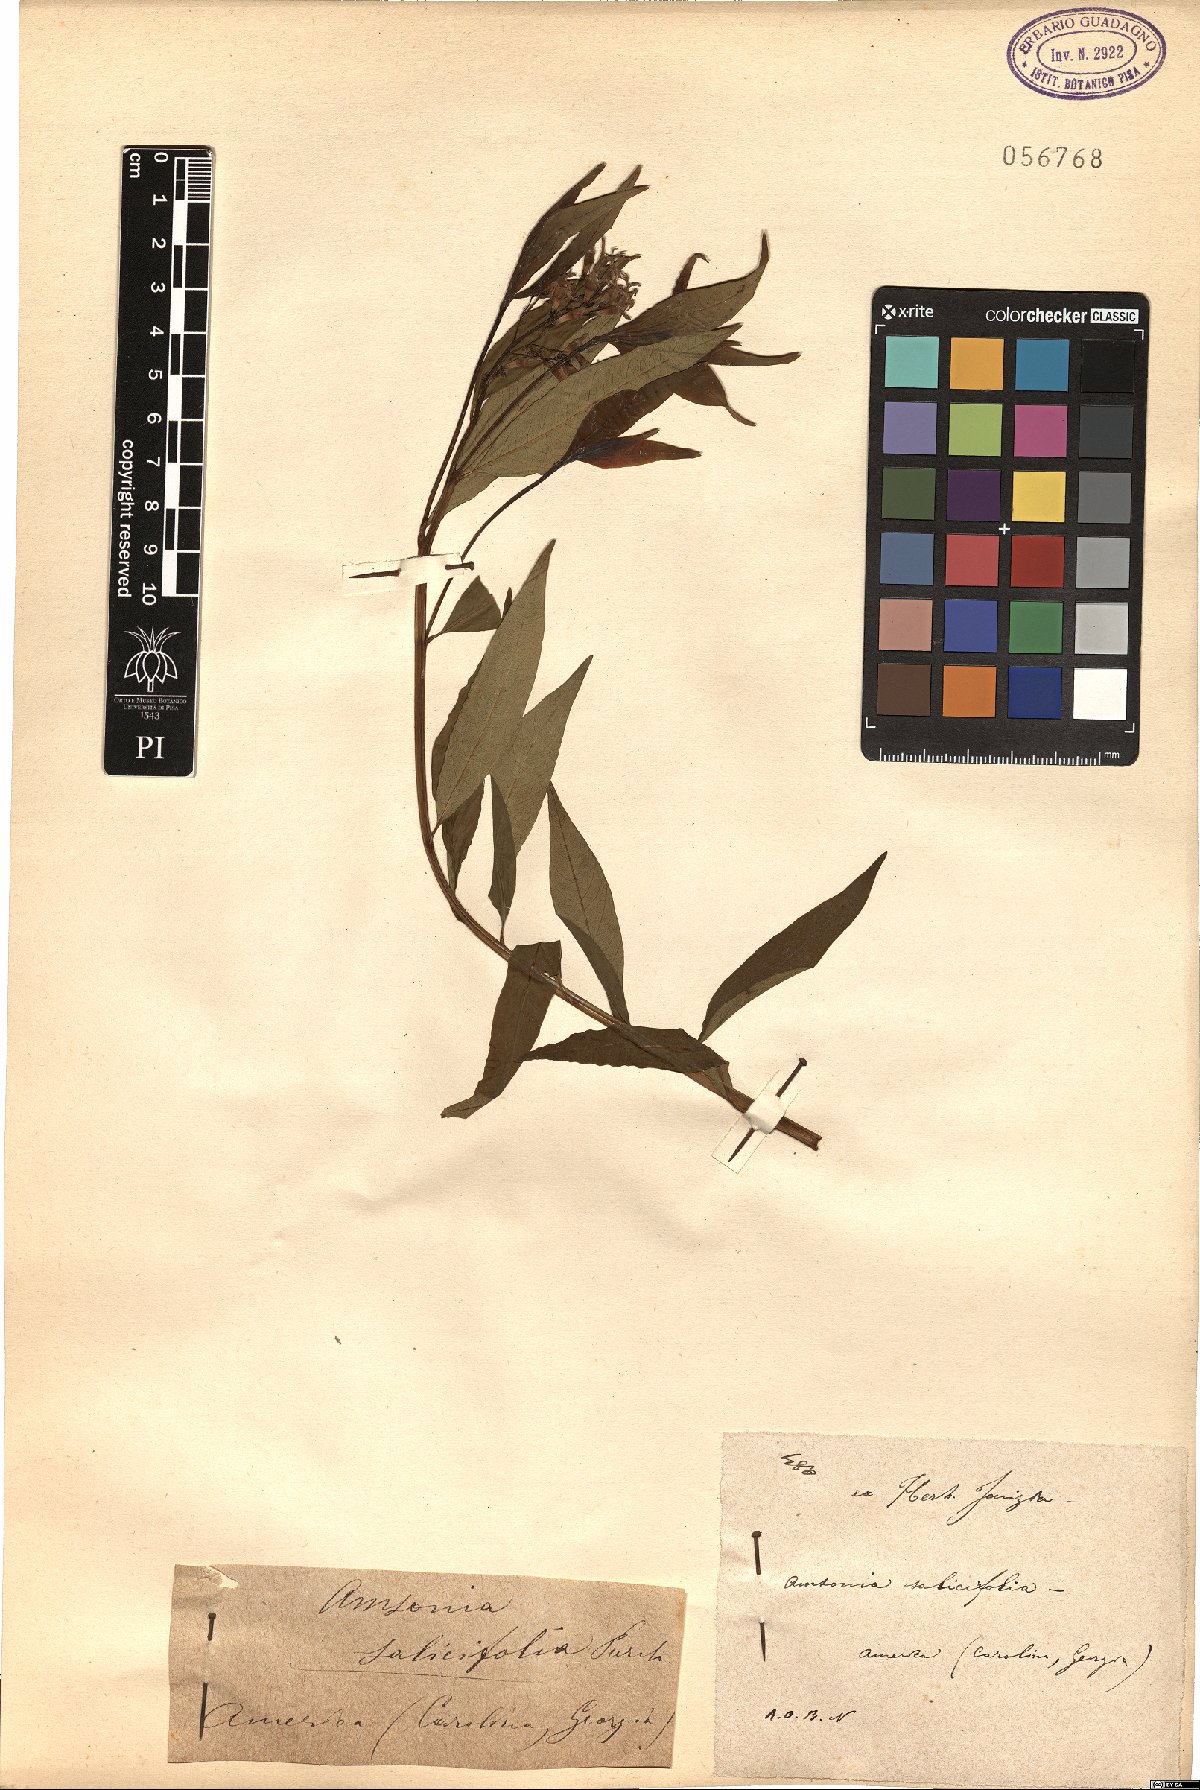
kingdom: Plantae
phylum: Tracheophyta
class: Magnoliopsida
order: Gentianales
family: Apocynaceae
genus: Amsonia
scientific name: Amsonia tabernaemontana
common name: Texas-star
